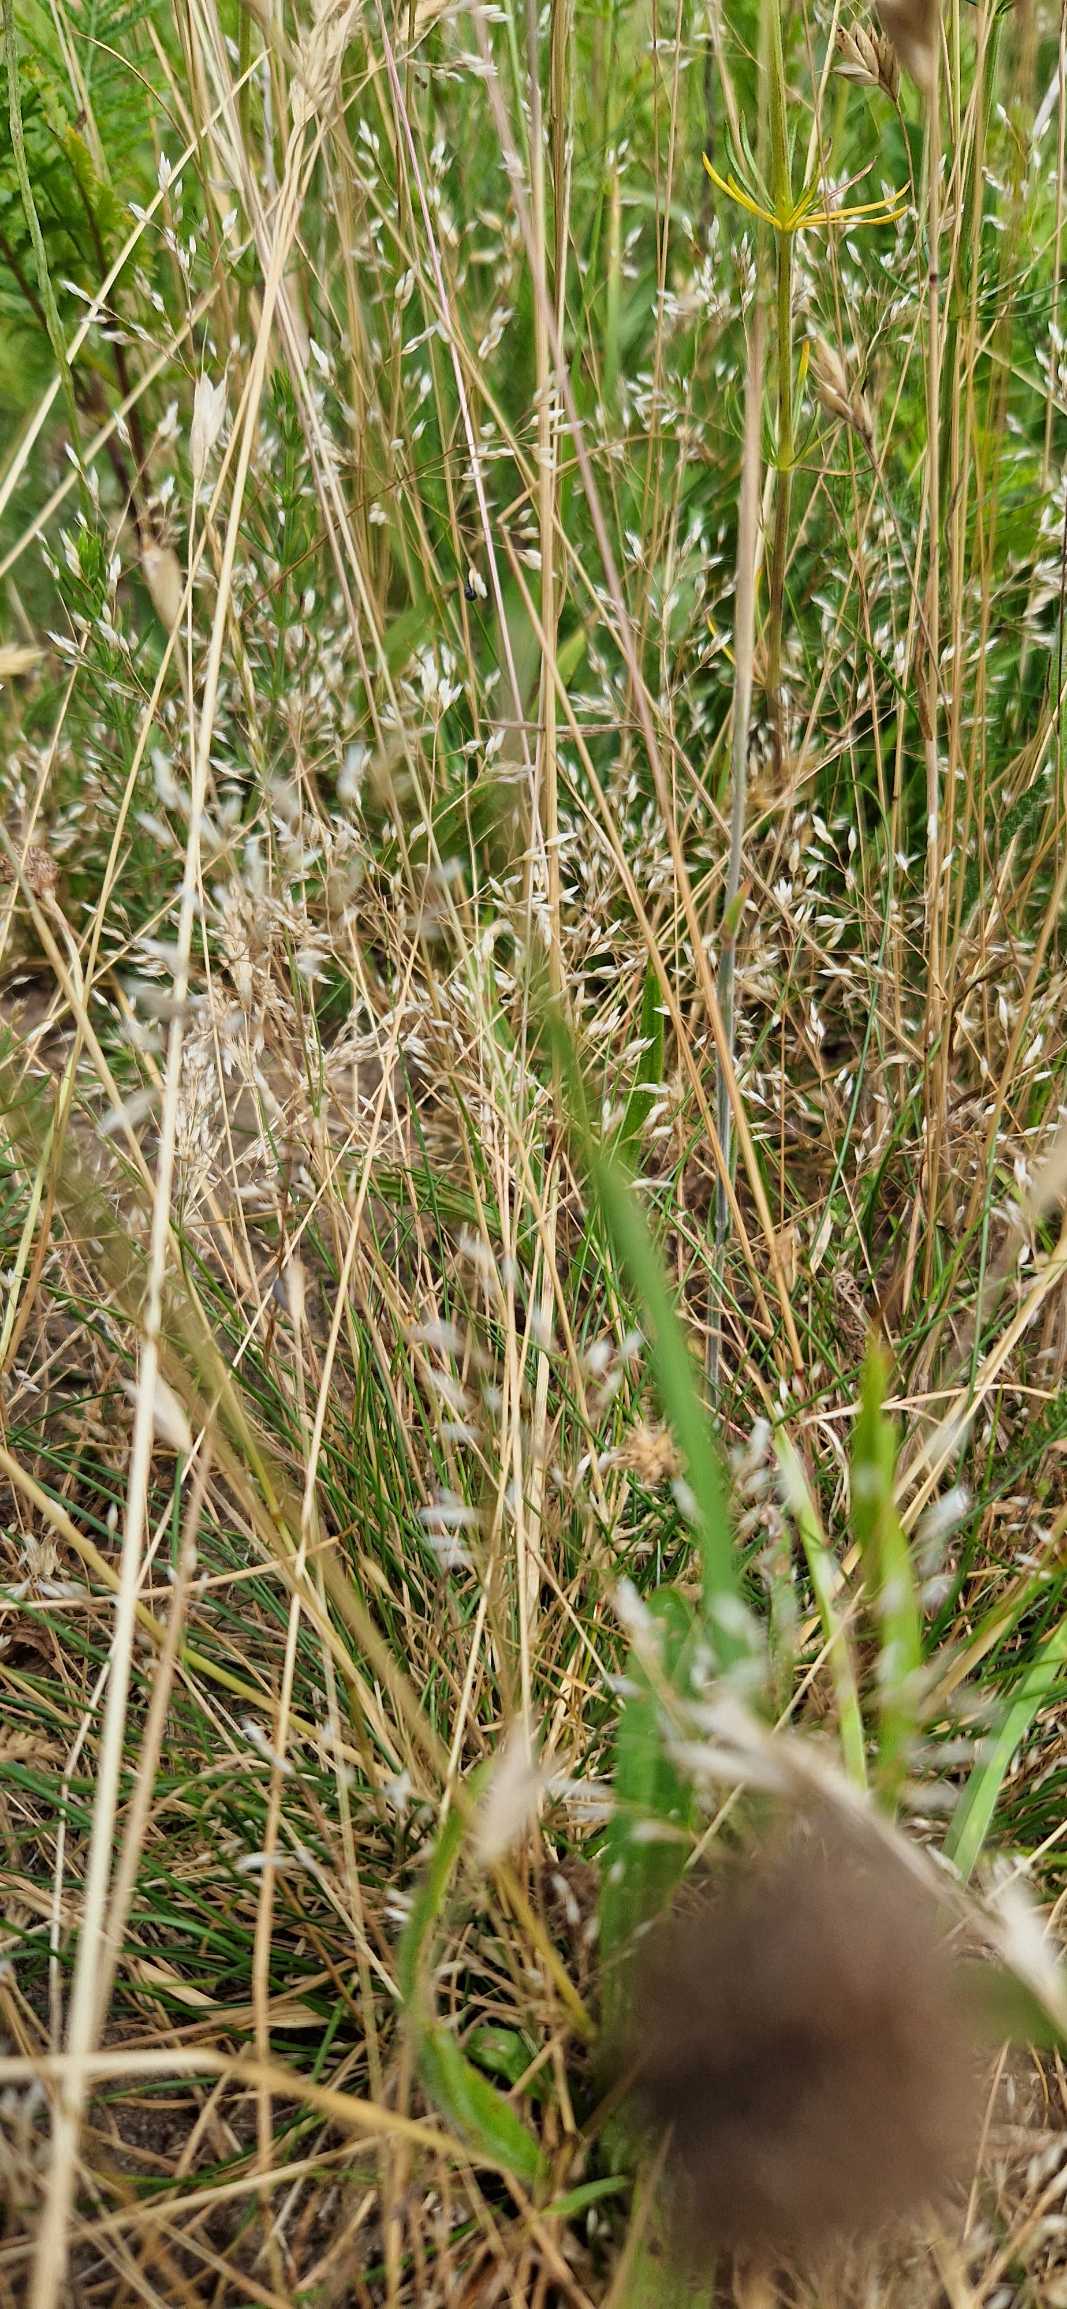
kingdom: Plantae
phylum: Tracheophyta
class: Liliopsida
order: Poales
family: Poaceae
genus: Aira
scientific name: Aira caryophyllea
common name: Udspærret dværgbunke
